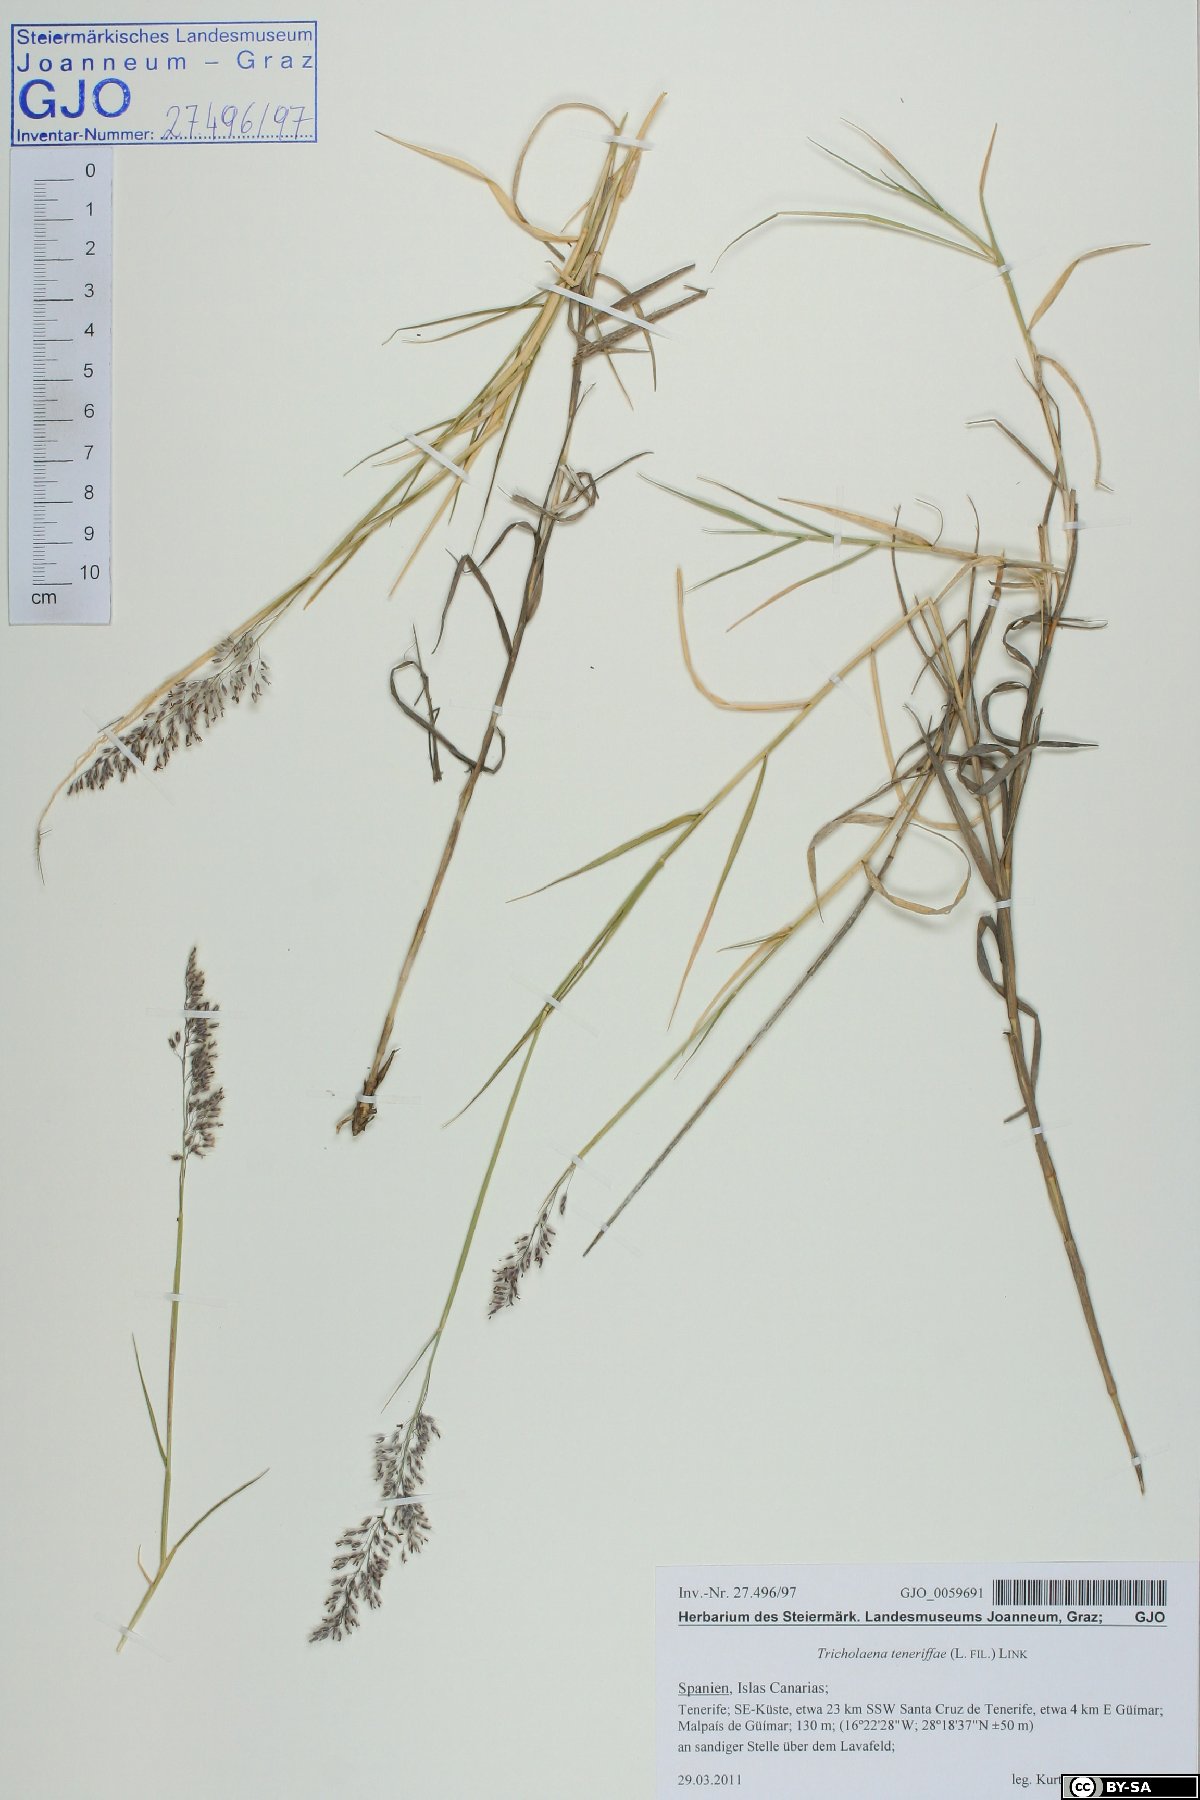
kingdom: Plantae
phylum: Tracheophyta
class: Liliopsida
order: Poales
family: Poaceae
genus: Tricholaena
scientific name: Tricholaena teneriffae
